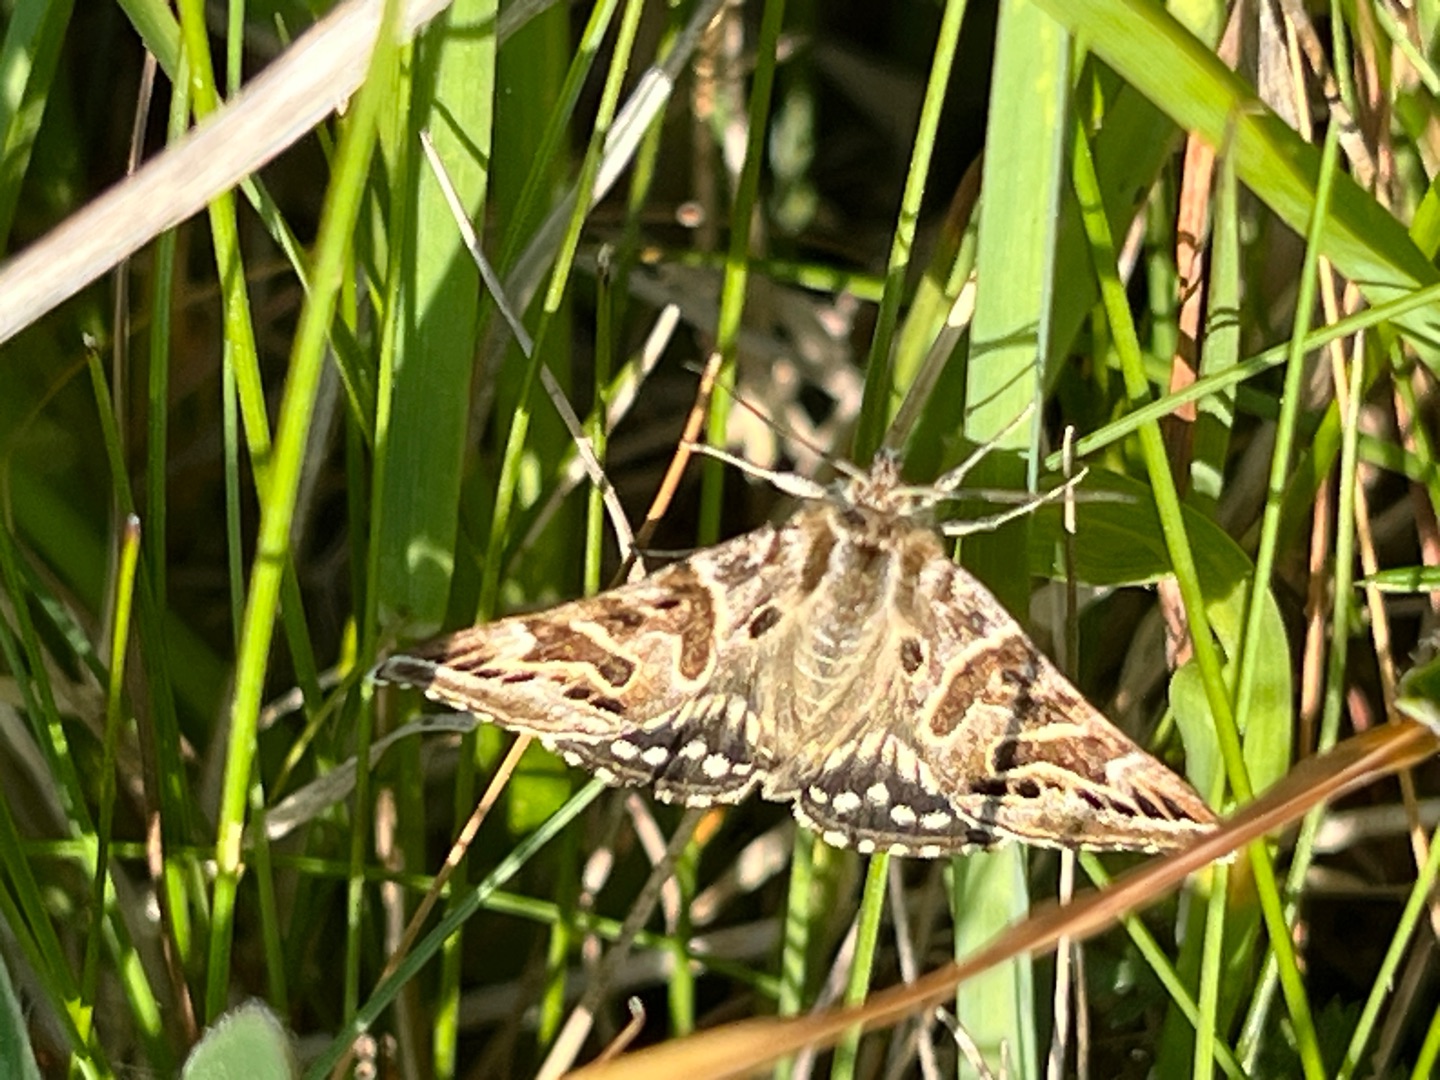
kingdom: Animalia
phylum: Arthropoda
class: Insecta
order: Lepidoptera
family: Erebidae
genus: Callistege
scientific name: Callistege mi
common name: Marmoreret kløverugle
